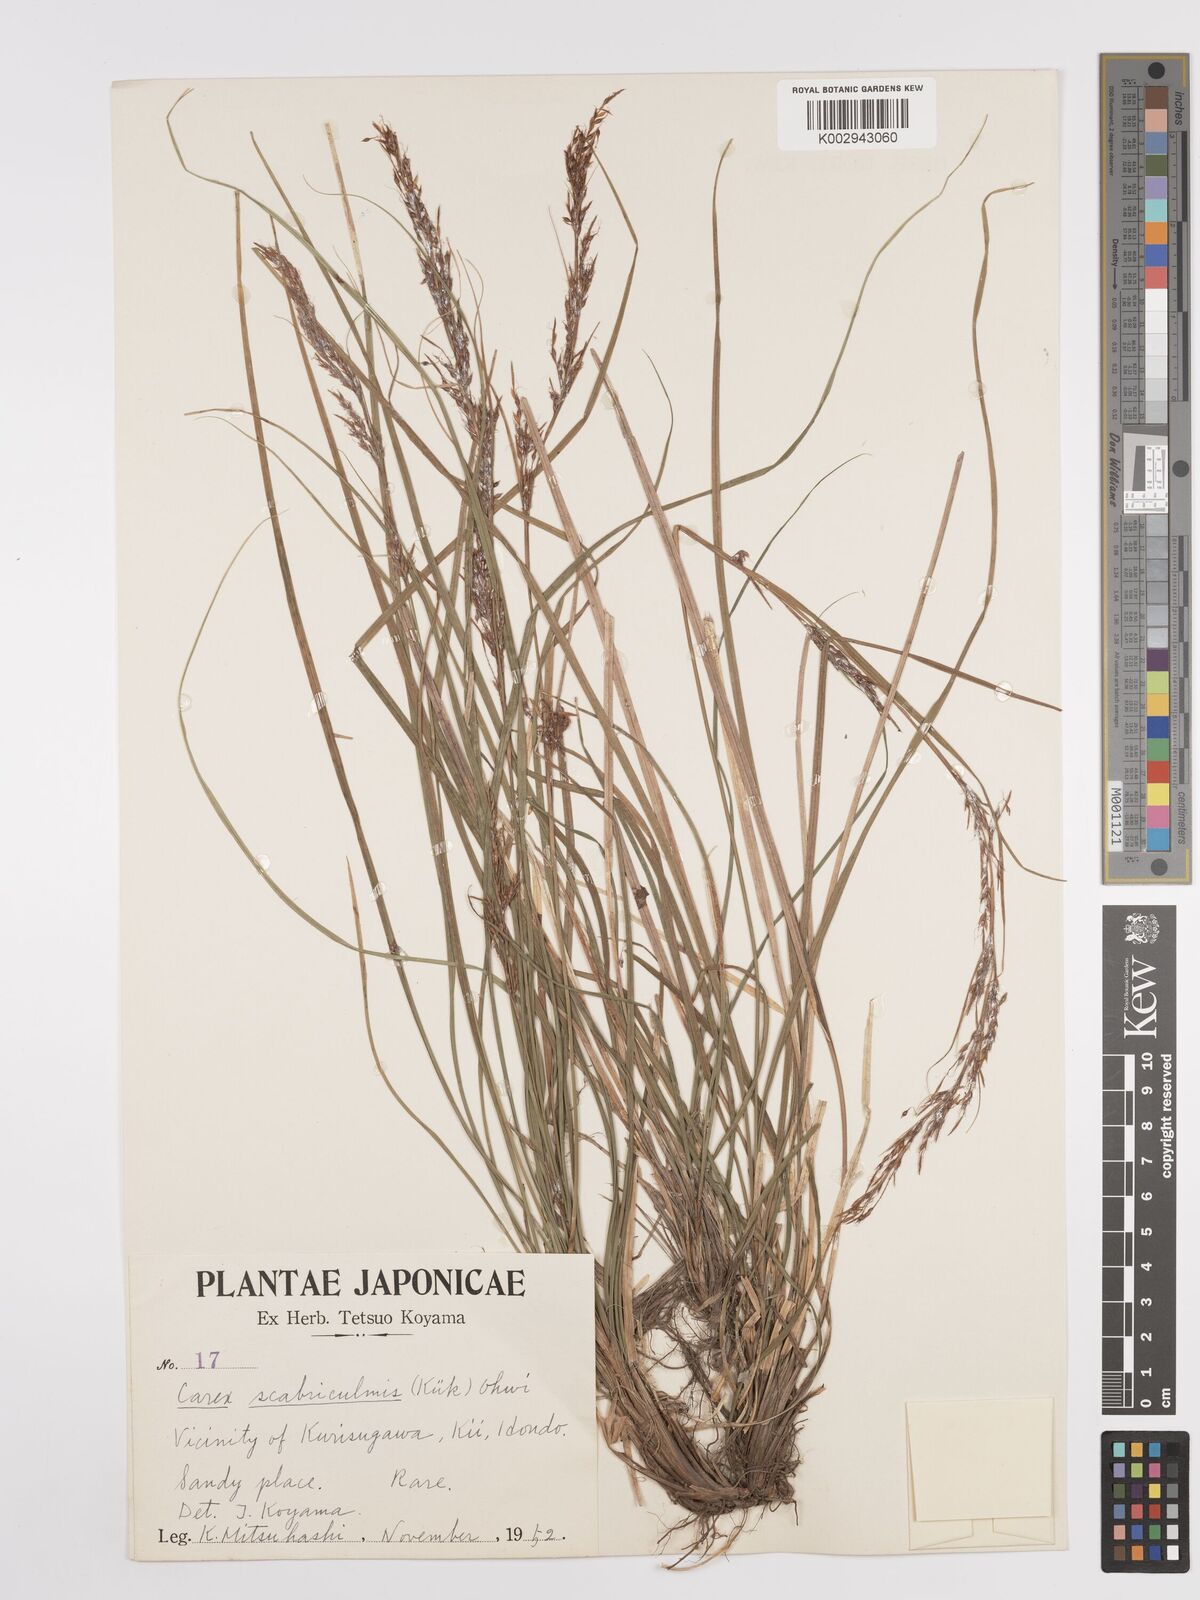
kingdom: Plantae
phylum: Tracheophyta
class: Liliopsida
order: Poales
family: Cyperaceae
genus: Carex
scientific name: Carex teinogyna
